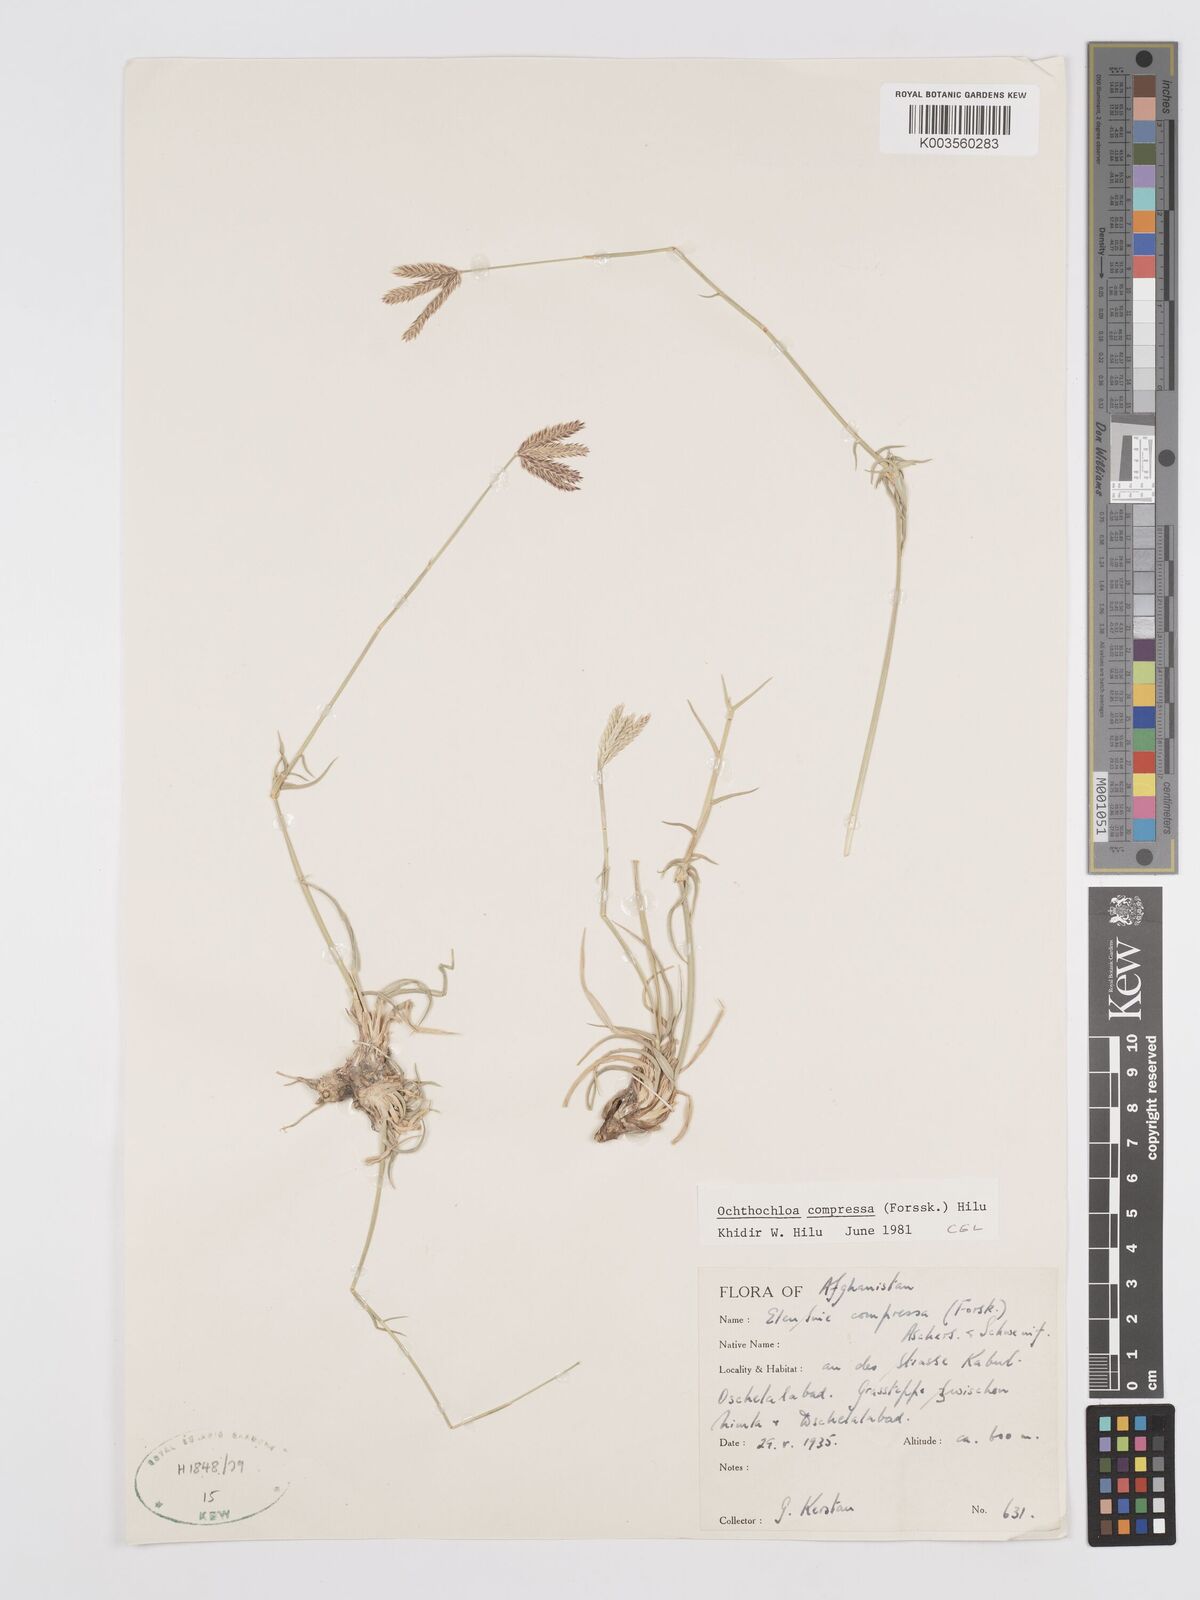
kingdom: Plantae
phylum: Tracheophyta
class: Liliopsida
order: Poales
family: Poaceae
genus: Chloris
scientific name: Chloris flagellifera
